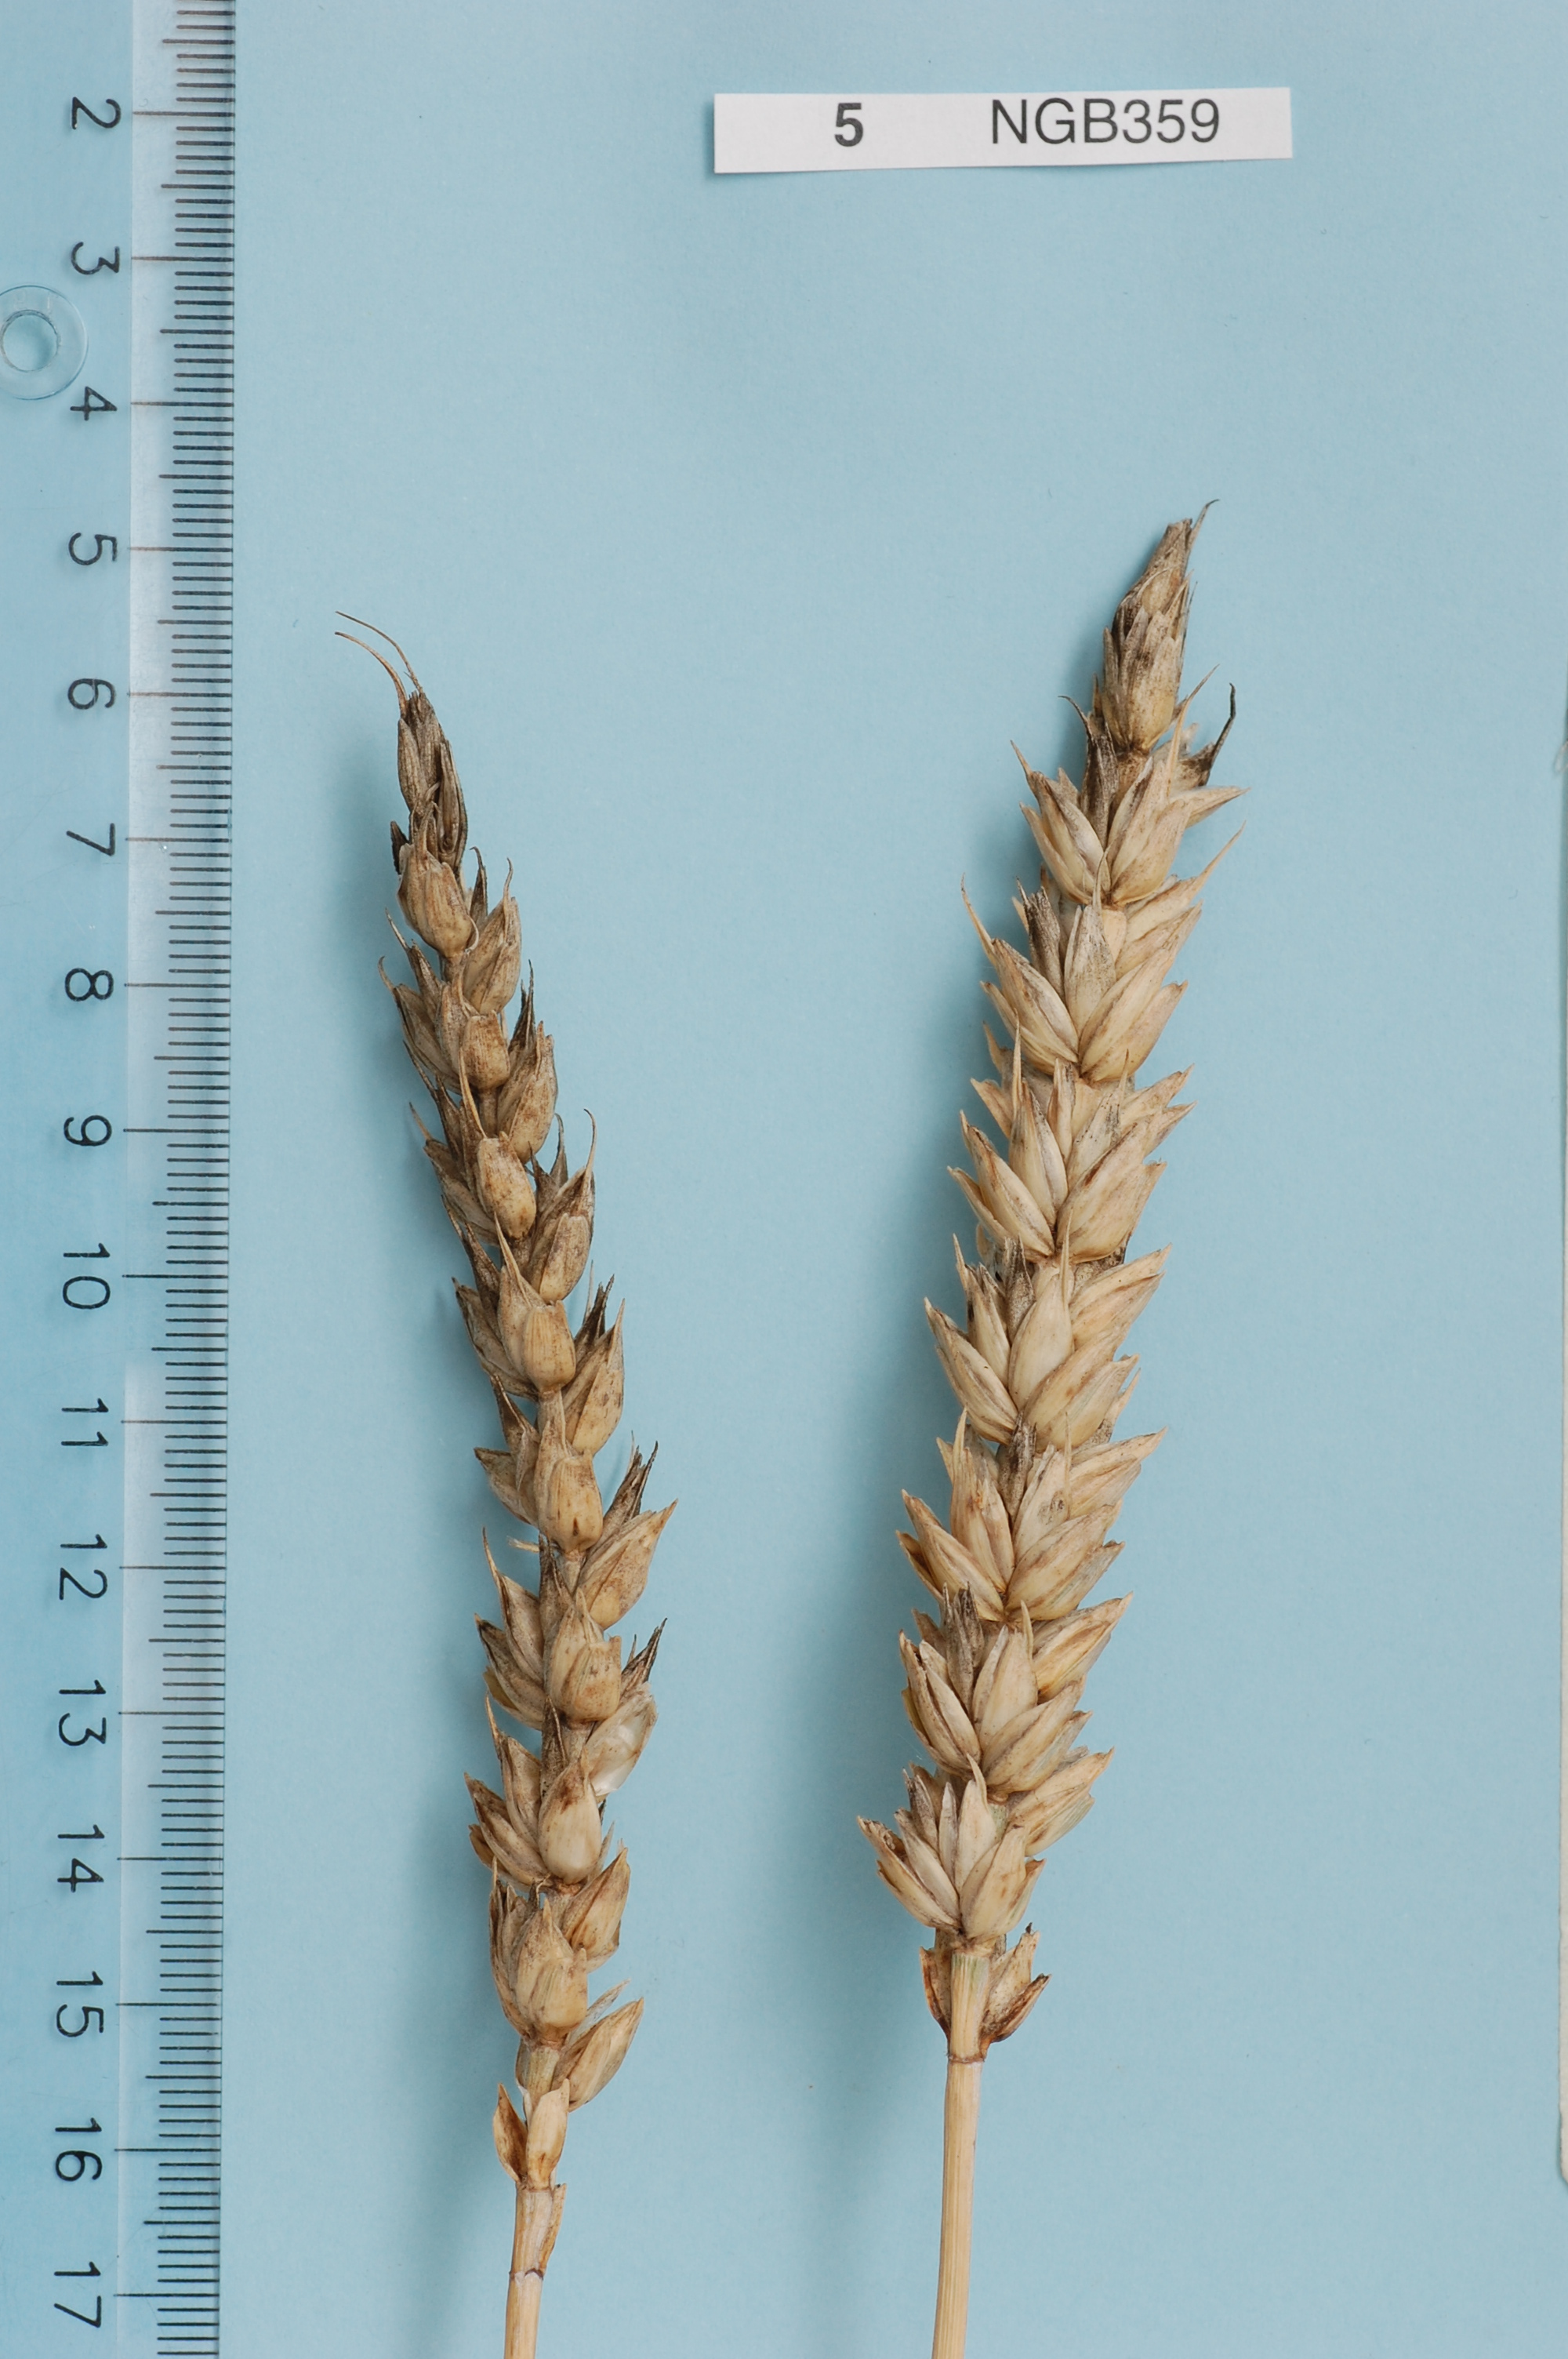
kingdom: Plantae
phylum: Tracheophyta
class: Liliopsida
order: Poales
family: Poaceae
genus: Triticum
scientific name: Triticum aestivum
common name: Common wheat
